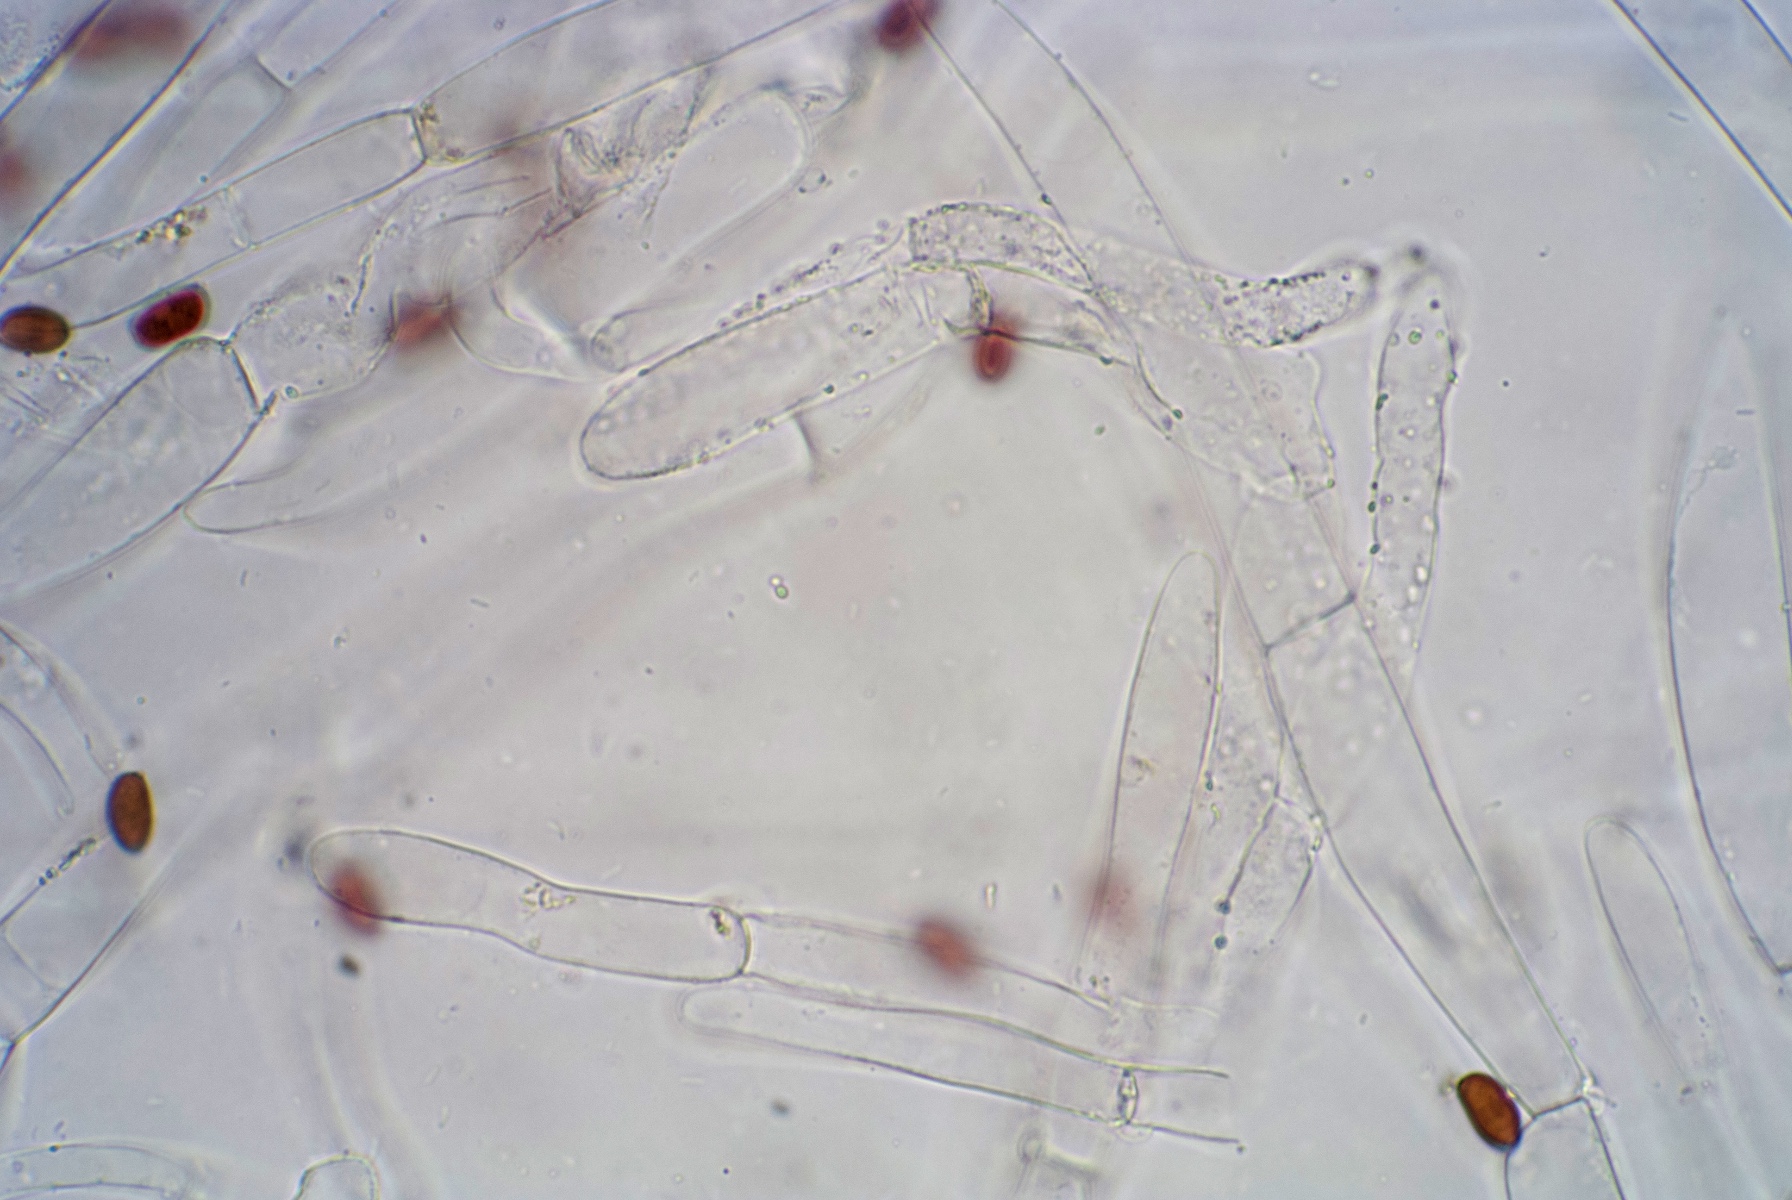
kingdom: Fungi
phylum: Basidiomycota
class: Agaricomycetes
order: Agaricales
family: Psathyrellaceae
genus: Psathyrella
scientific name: Psathyrella fibrillosa
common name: almindelig mørkhat
